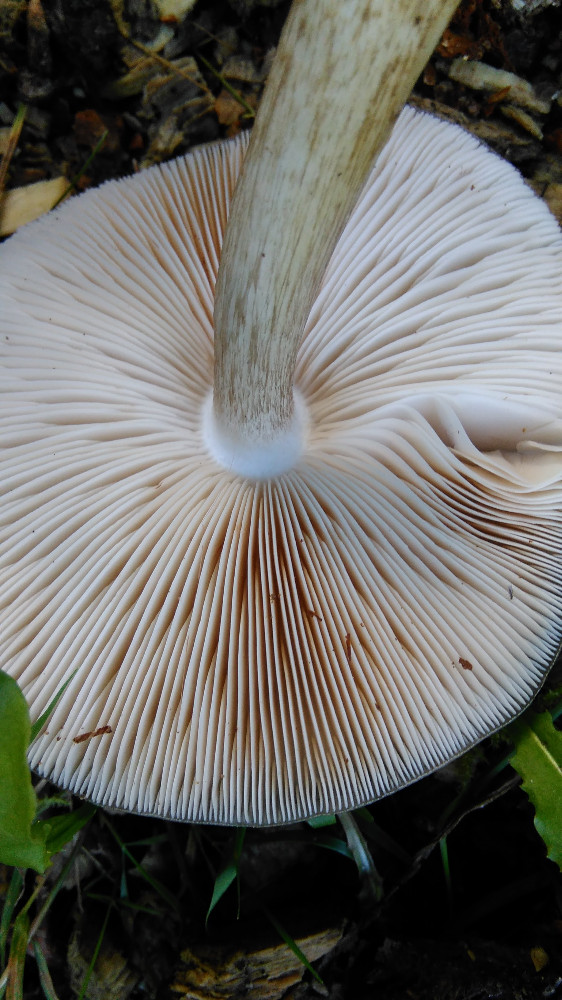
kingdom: Fungi
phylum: Basidiomycota
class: Agaricomycetes
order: Agaricales
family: Pluteaceae
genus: Pluteus
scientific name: Pluteus cervinus
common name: sodfarvet skærmhat
